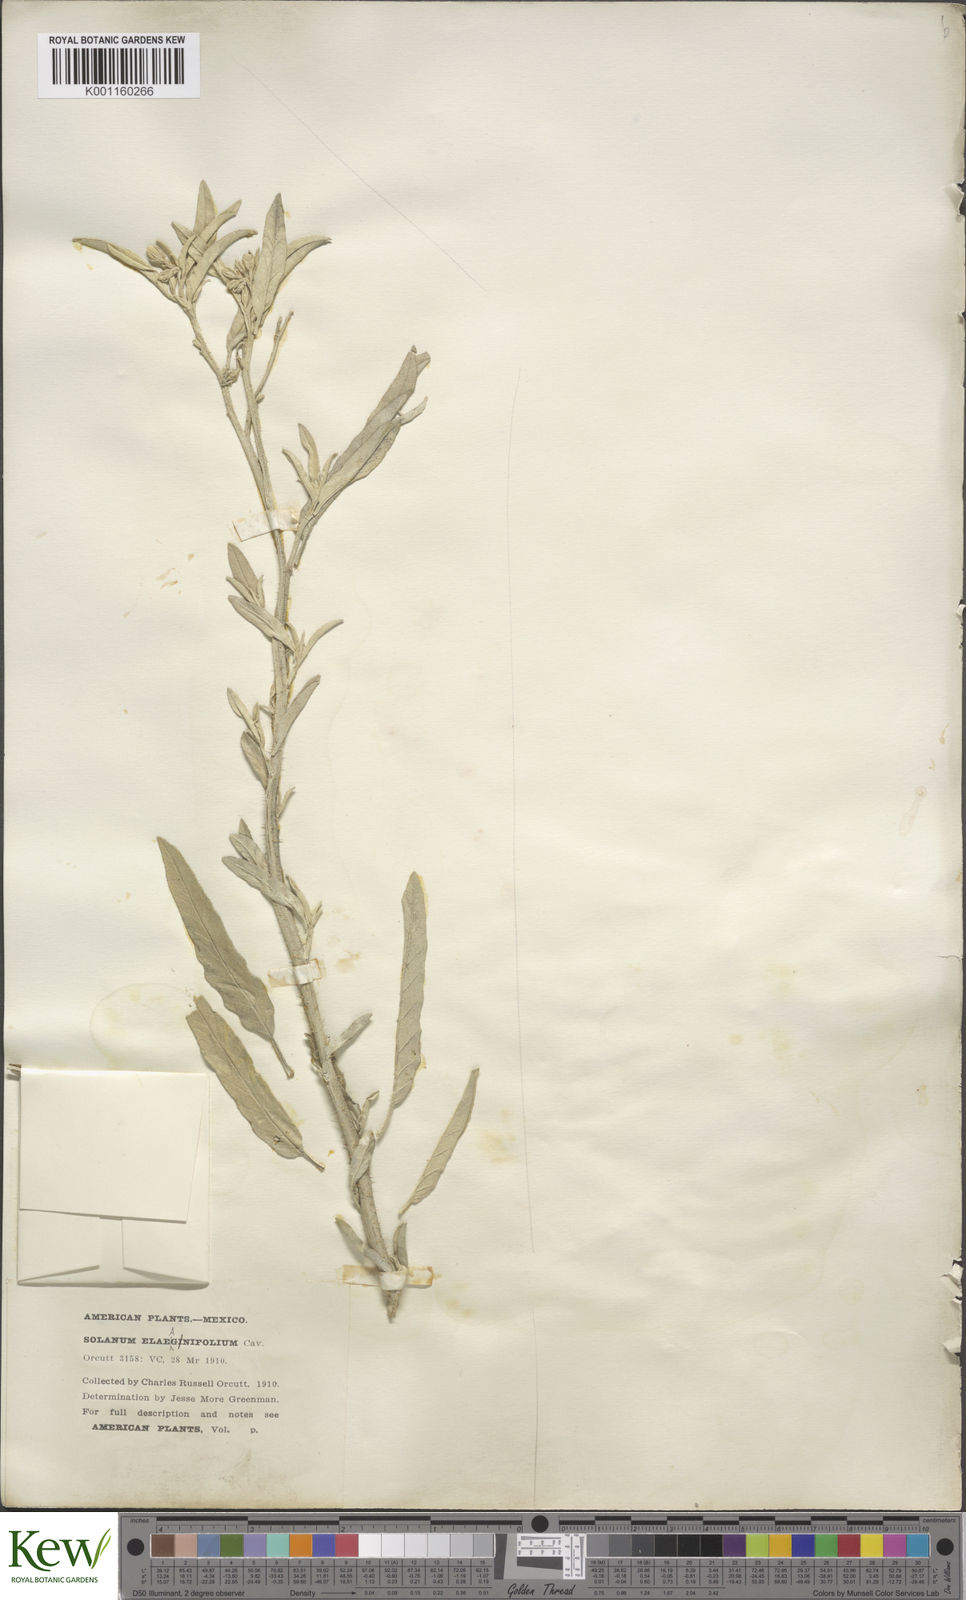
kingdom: Plantae
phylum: Tracheophyta
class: Magnoliopsida
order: Solanales
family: Solanaceae
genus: Solanum
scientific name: Solanum elaeagnifolium
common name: Silverleaf nightshade
